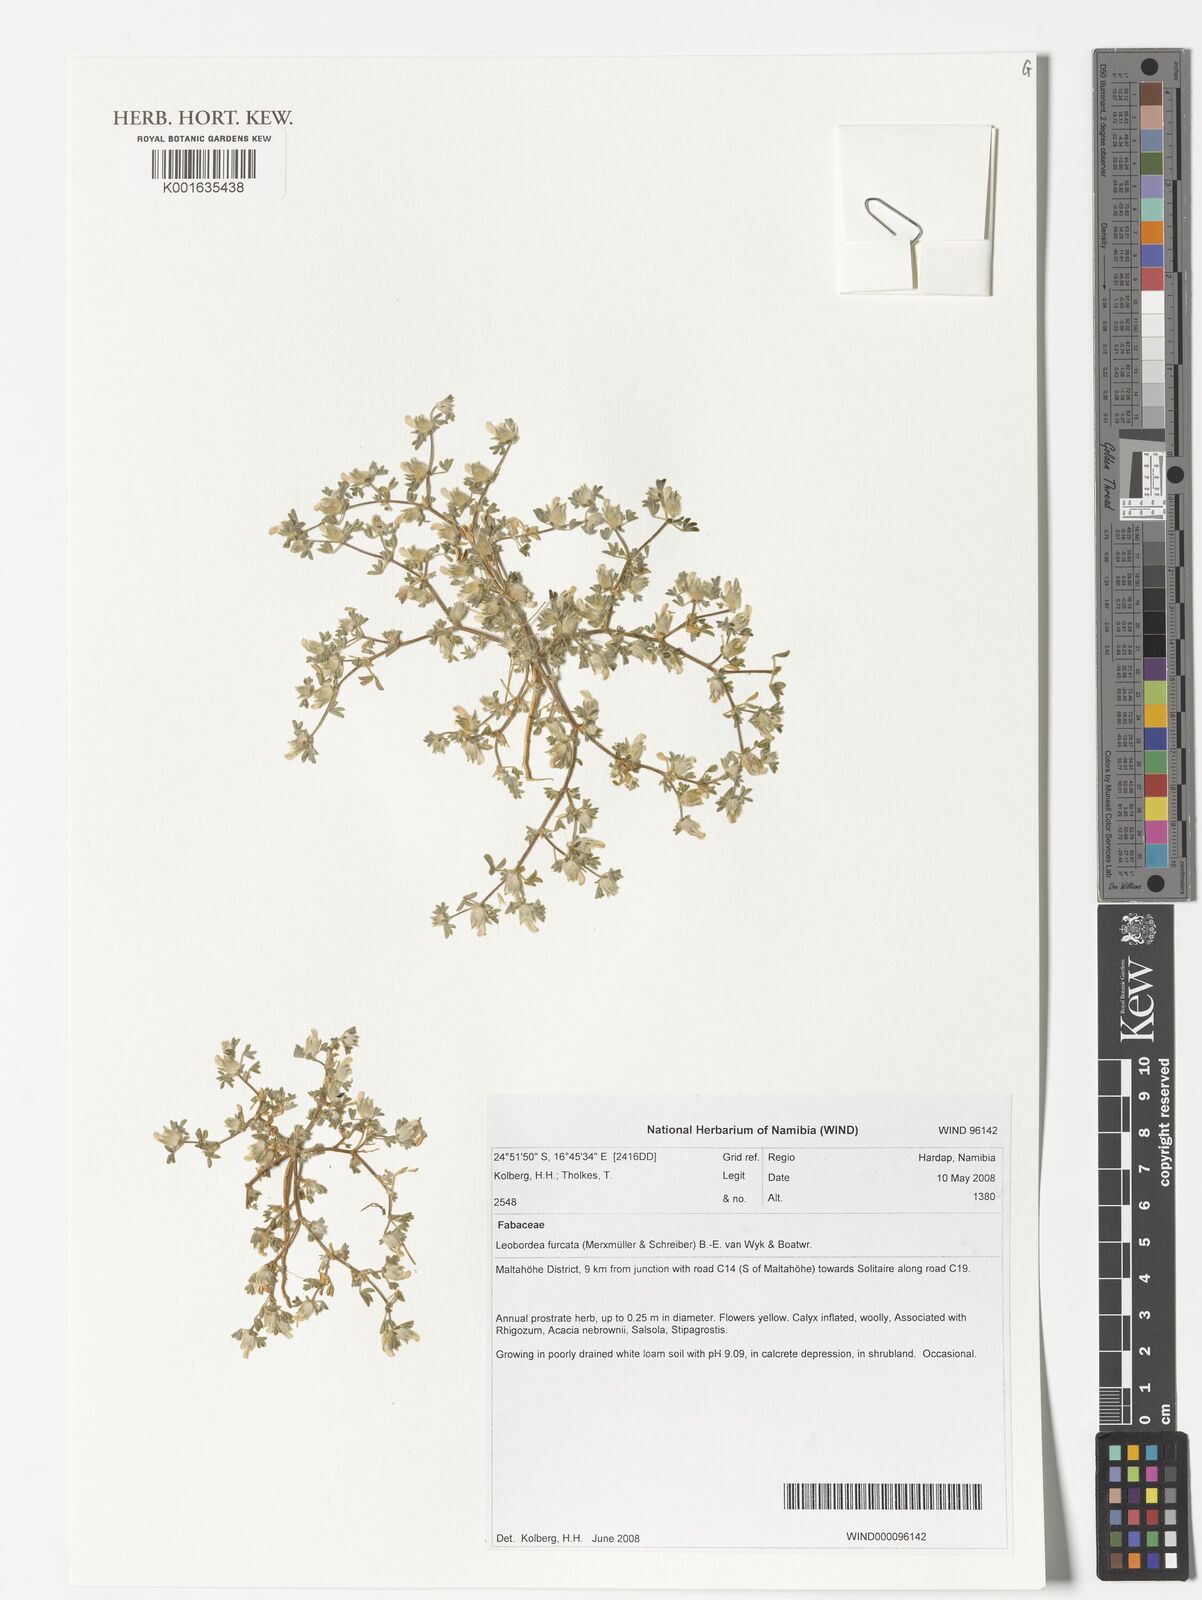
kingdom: Plantae
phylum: Tracheophyta
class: Magnoliopsida
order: Fabales
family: Fabaceae
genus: Leobordea
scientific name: Leobordea furcata
